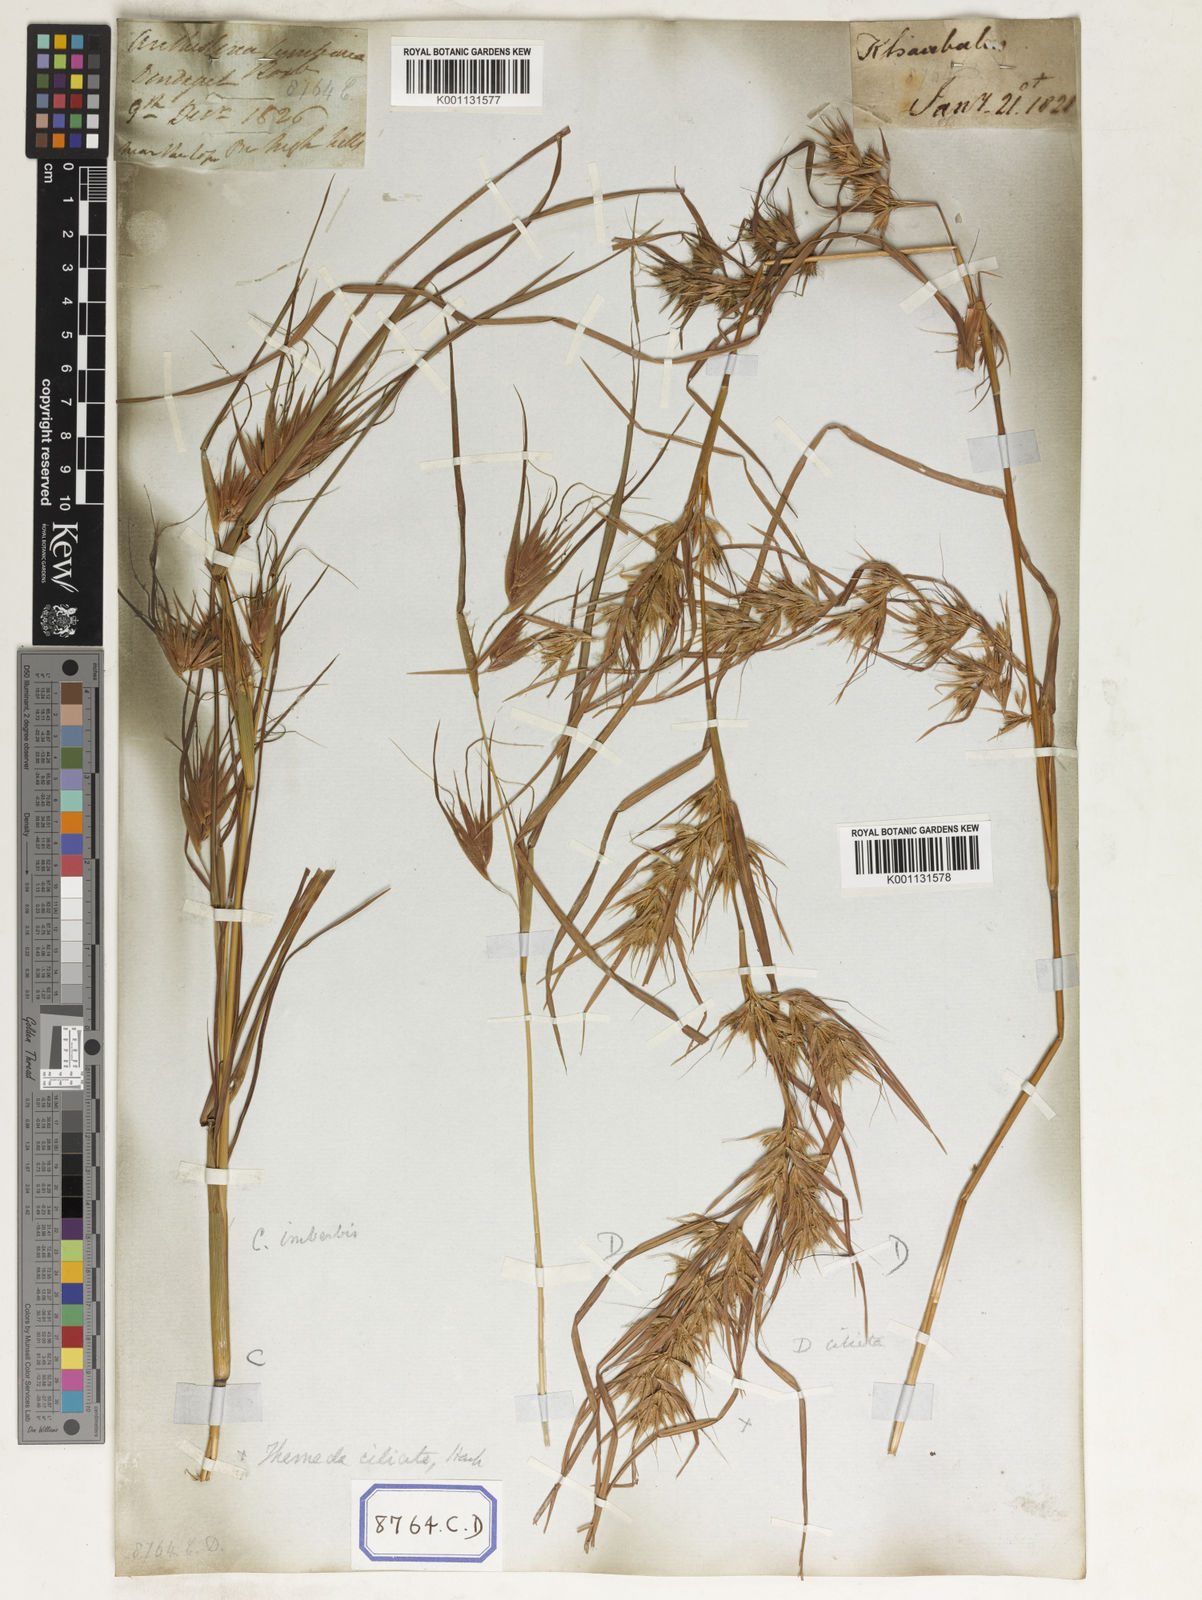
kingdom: Plantae
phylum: Tracheophyta
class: Liliopsida
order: Poales
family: Poaceae
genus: Themeda
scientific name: Themeda
